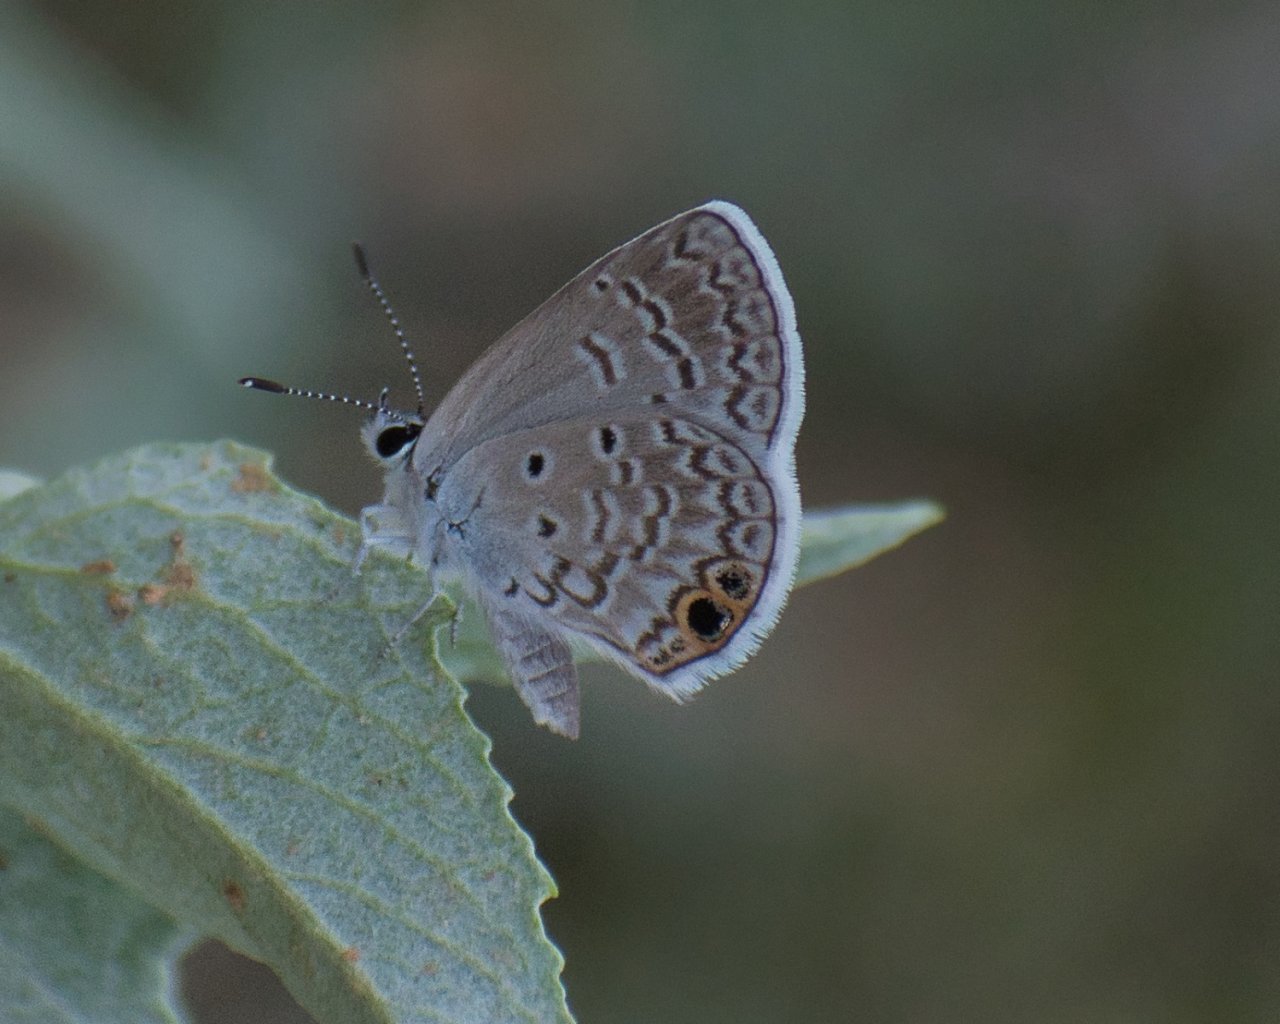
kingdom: Animalia
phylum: Arthropoda
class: Insecta
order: Lepidoptera
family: Lycaenidae
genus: Hemiargus
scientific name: Hemiargus ceraunus
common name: Ceraunus Blue
